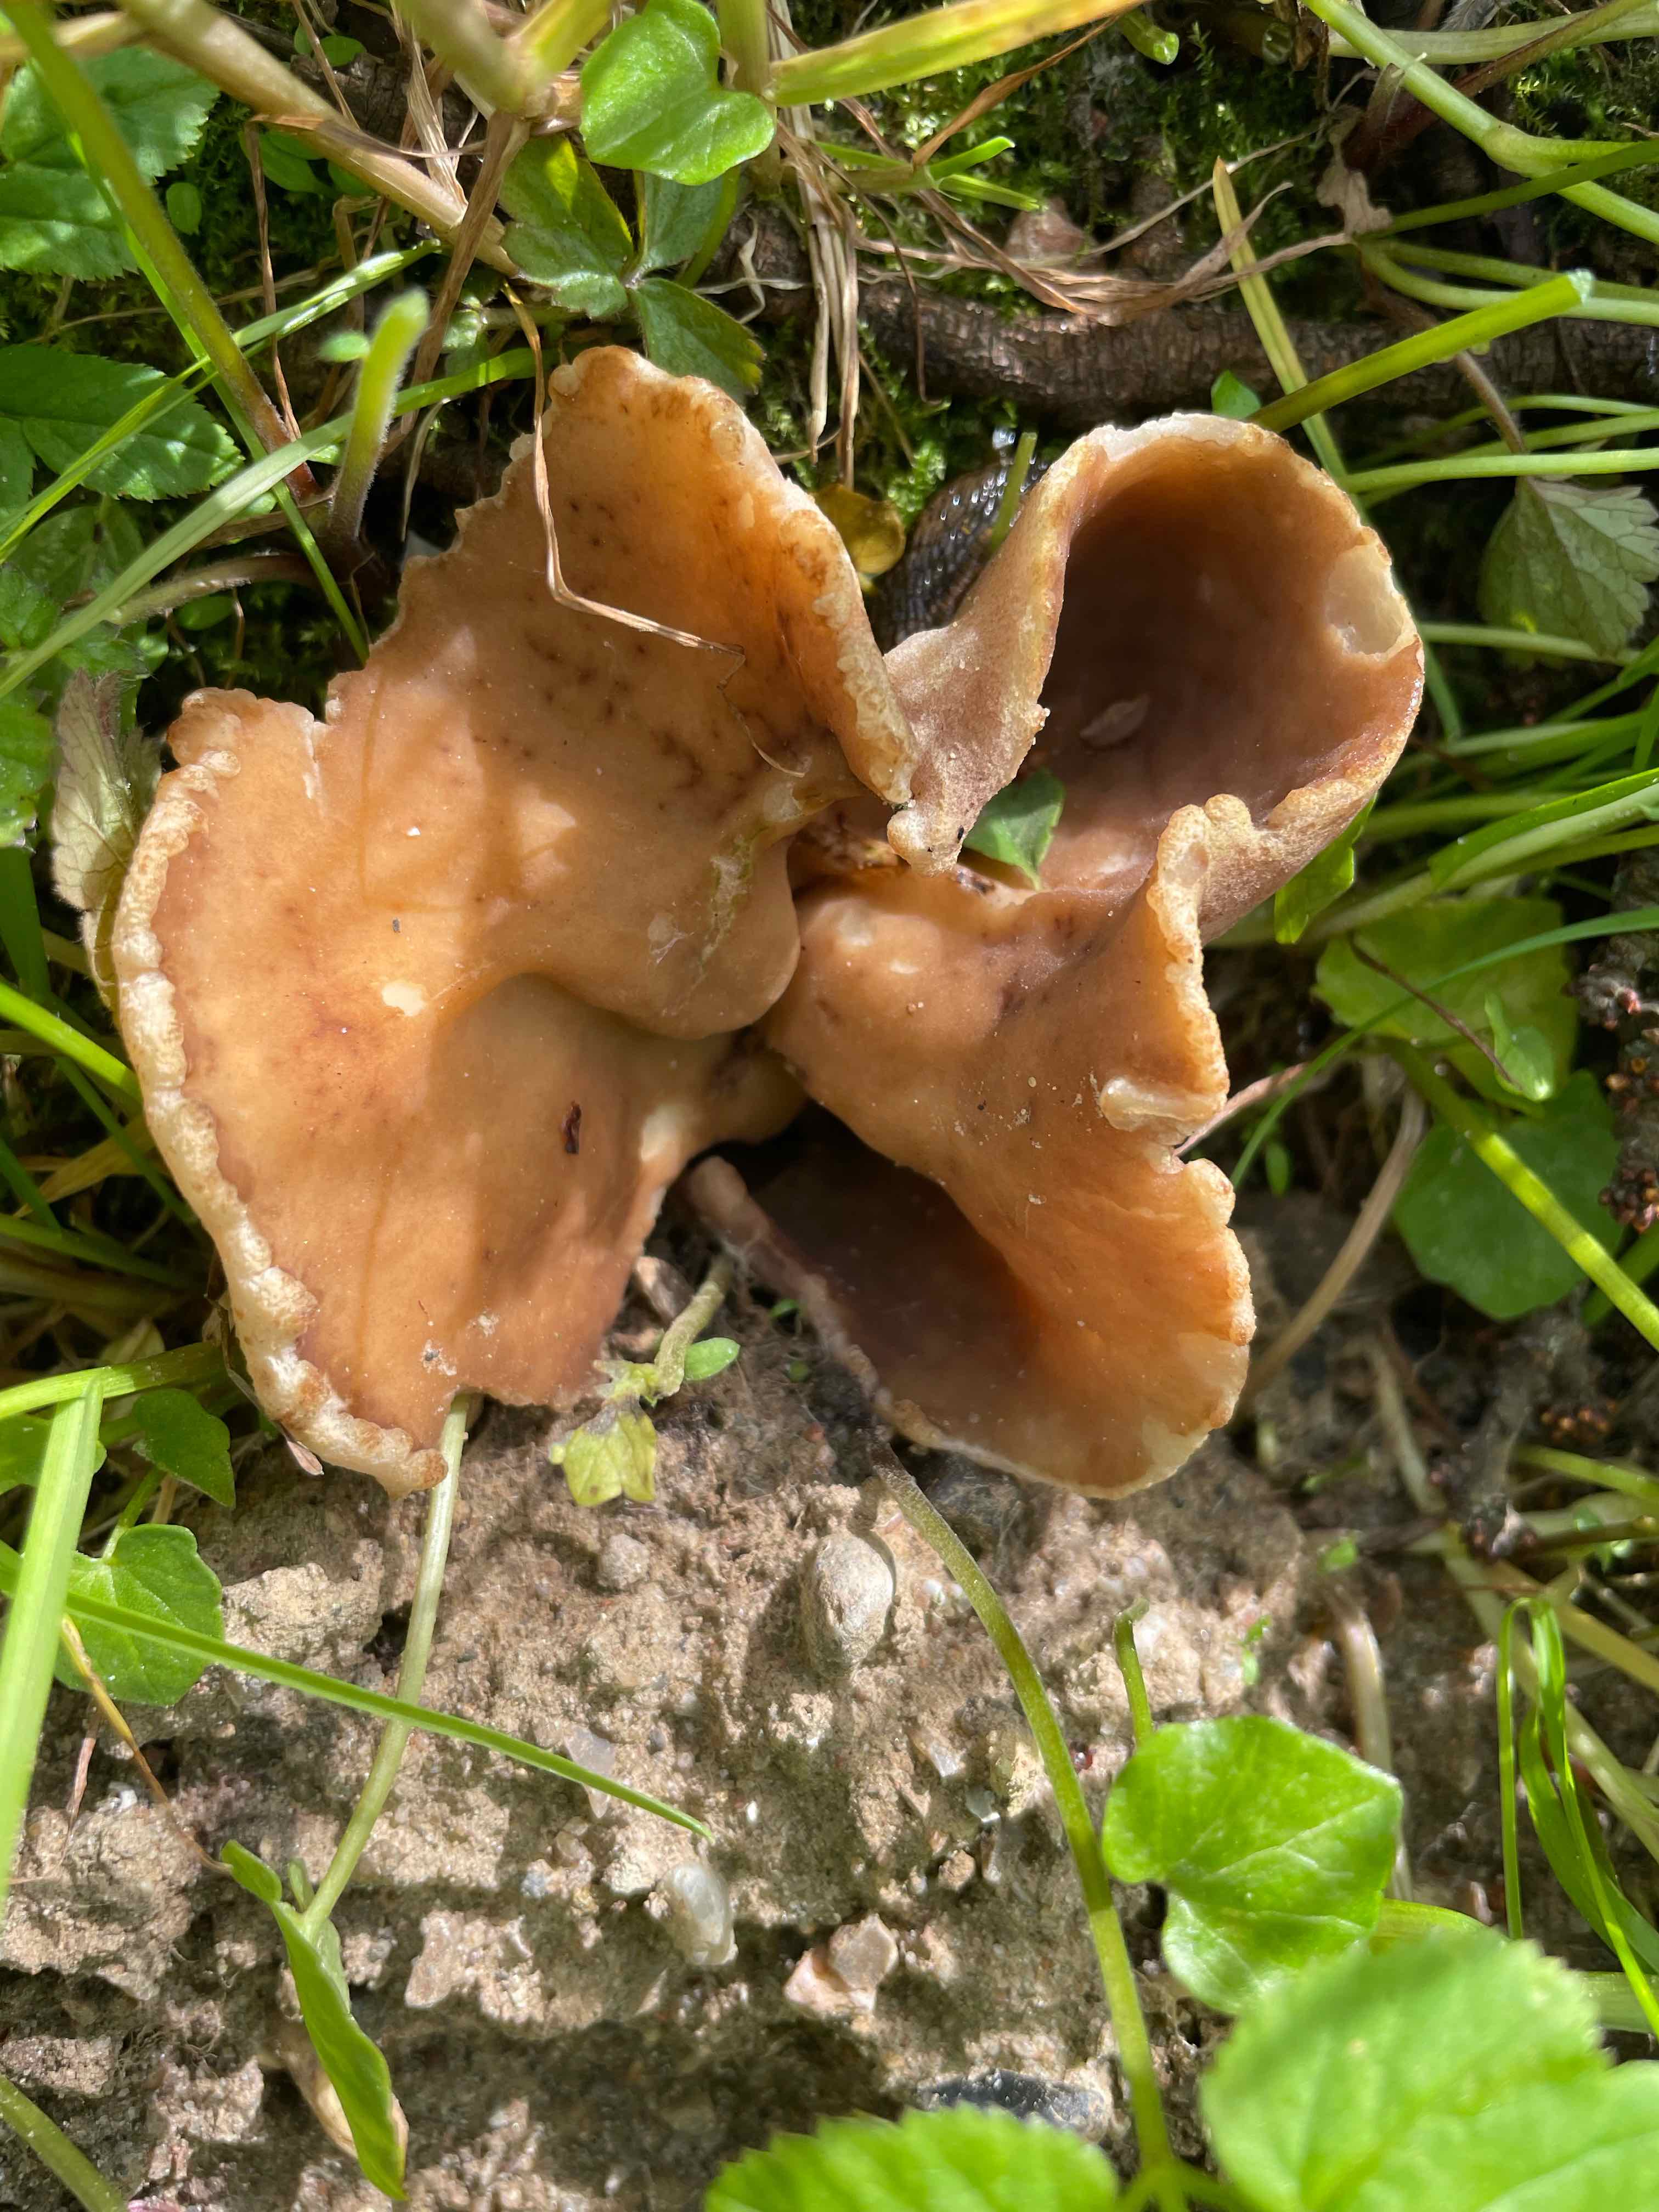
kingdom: Fungi
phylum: Ascomycota
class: Pezizomycetes
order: Pezizales
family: Morchellaceae
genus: Disciotis
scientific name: Disciotis venosa
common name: klor-bægermorkel
